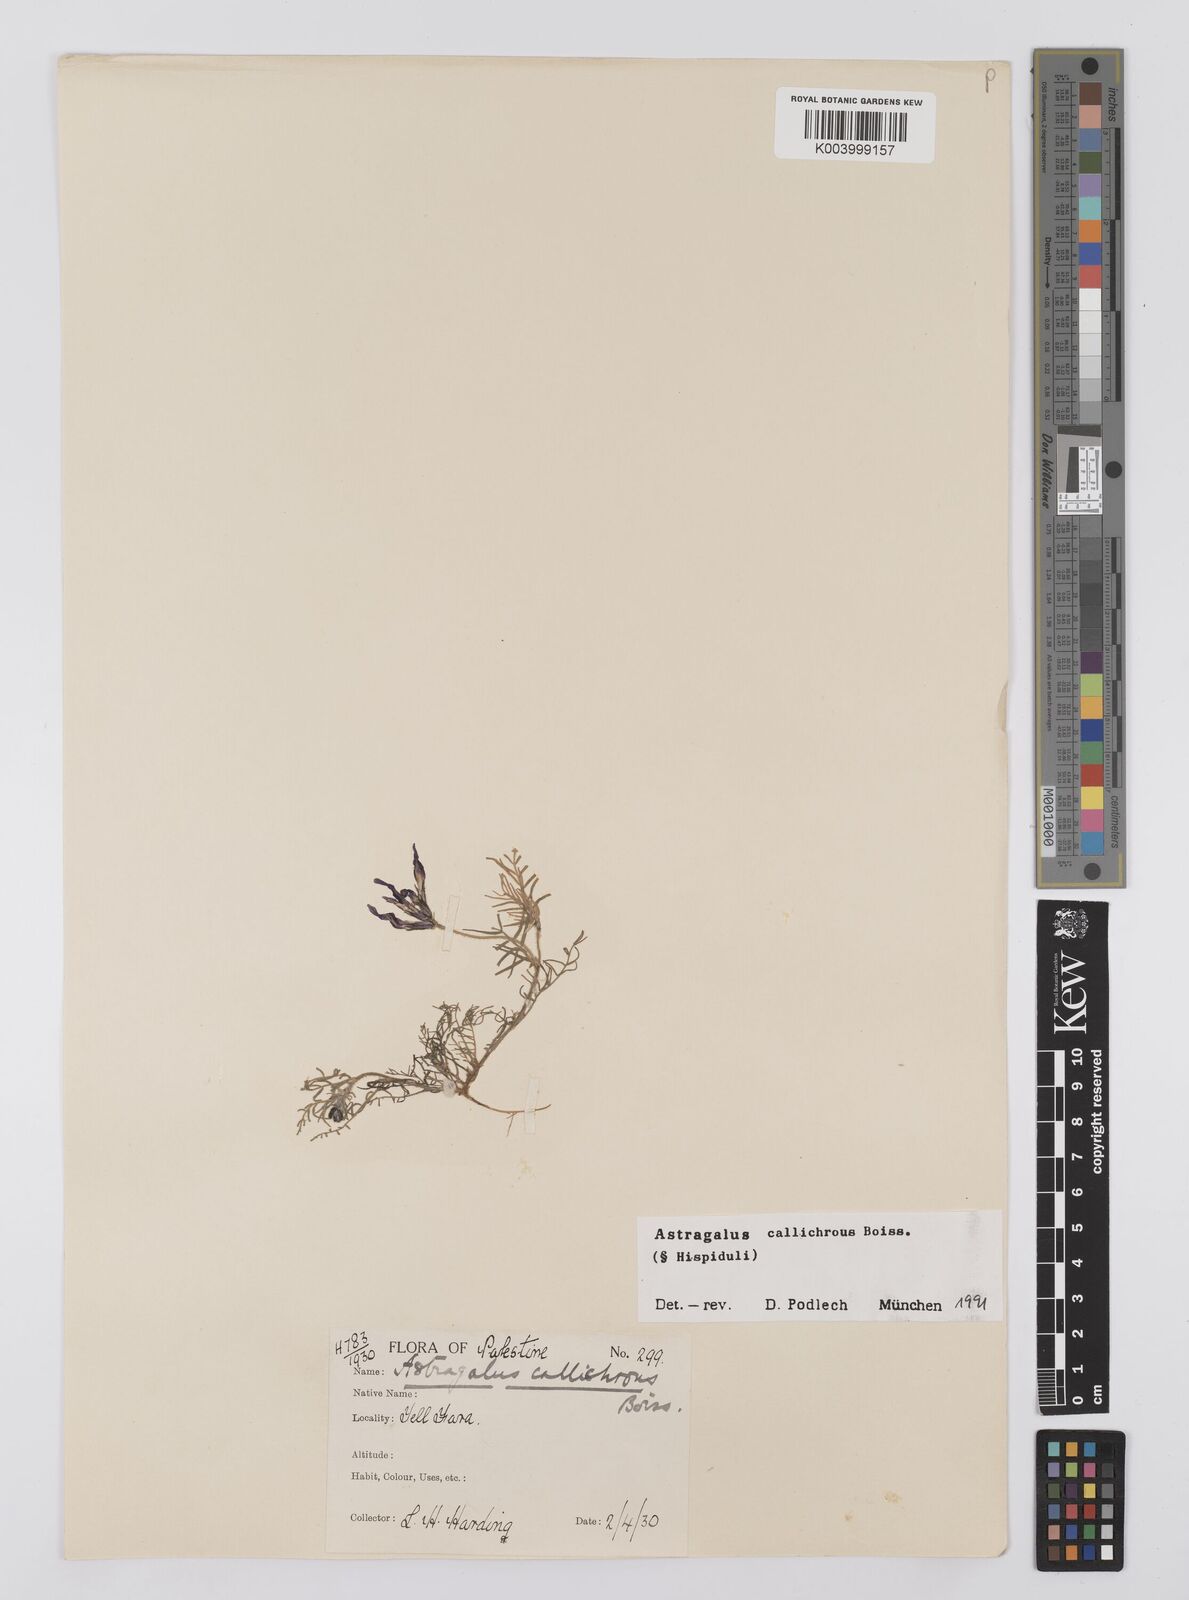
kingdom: Plantae
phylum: Tracheophyta
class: Magnoliopsida
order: Fabales
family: Fabaceae
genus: Astragalus
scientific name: Astragalus callichrous
